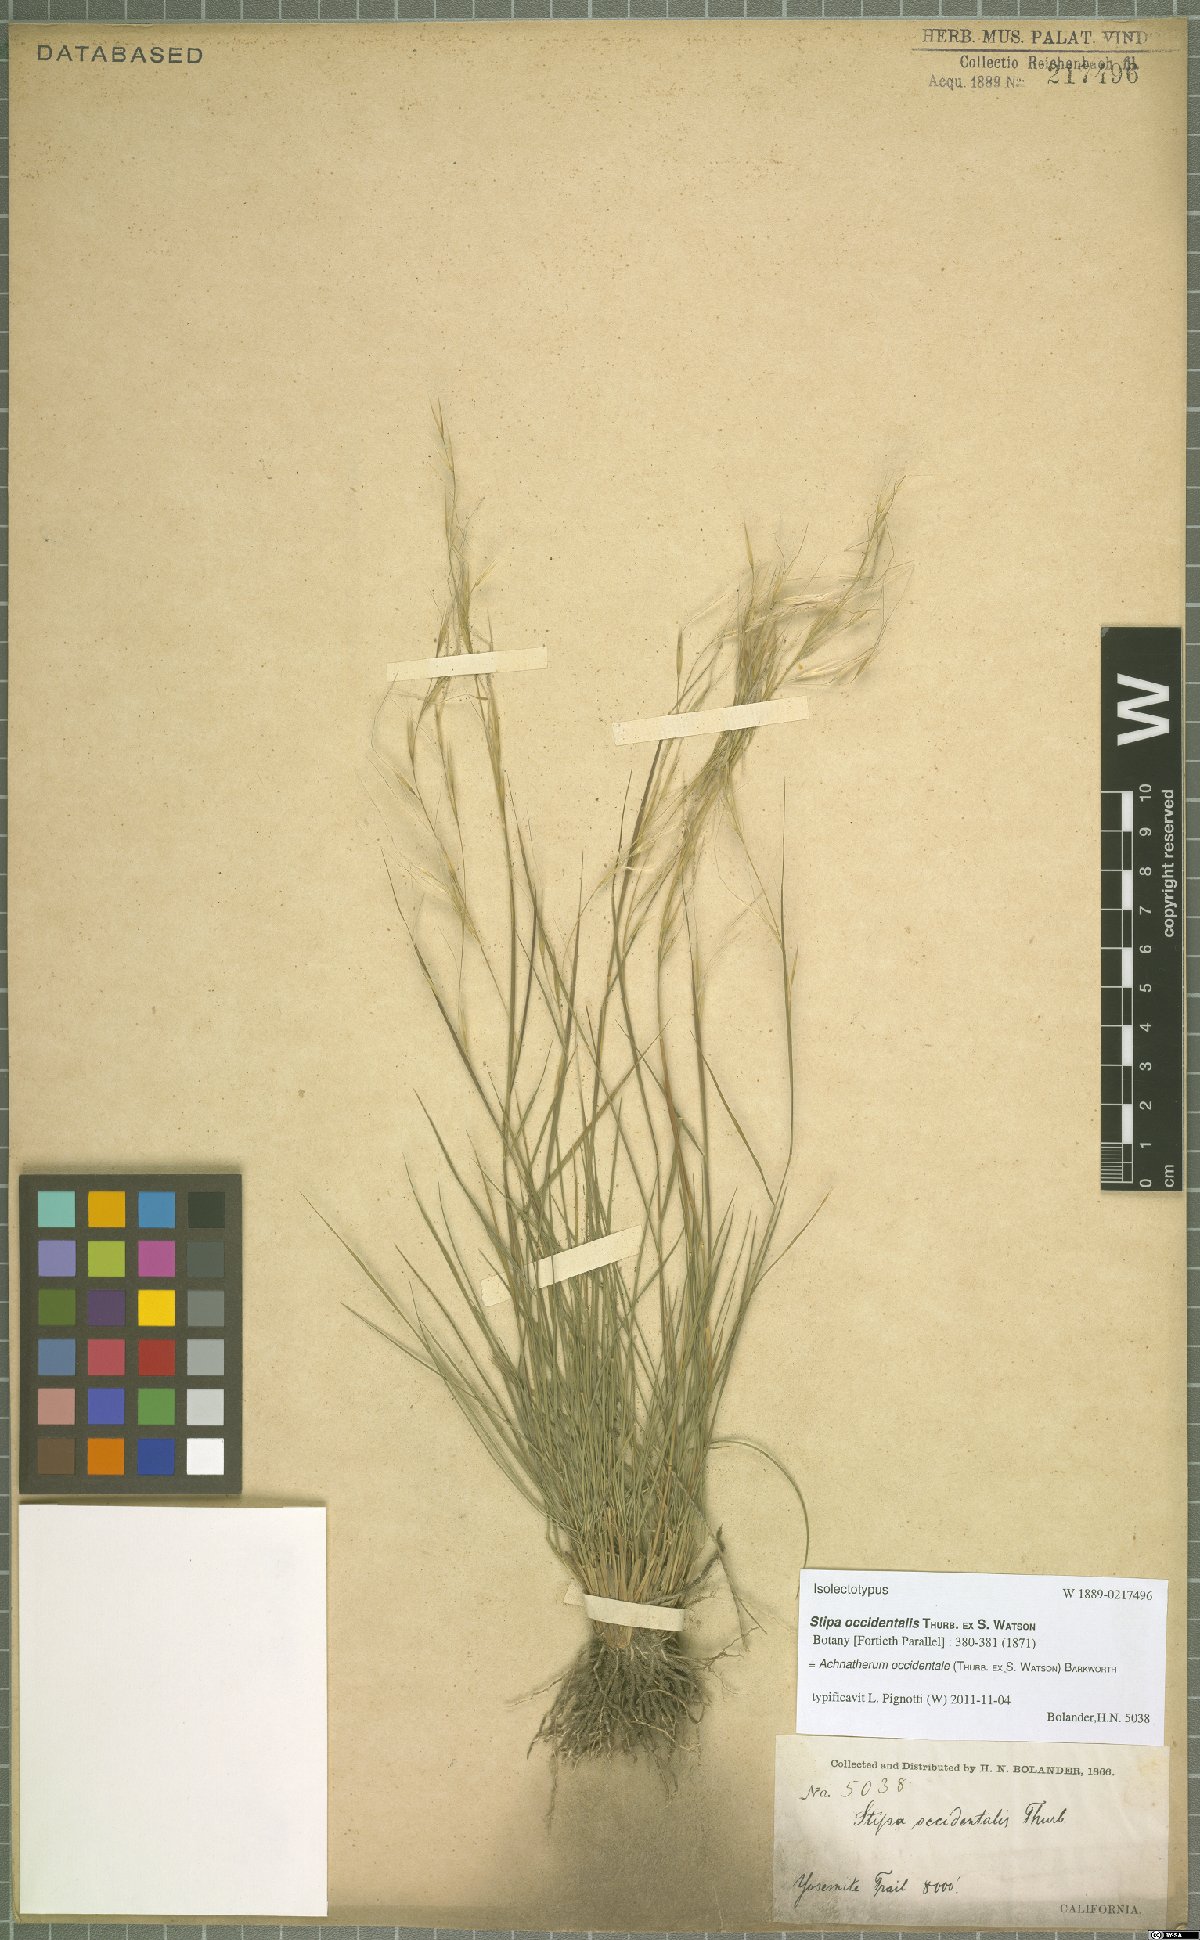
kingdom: Plantae
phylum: Tracheophyta
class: Liliopsida
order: Poales
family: Poaceae
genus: Eriocoma
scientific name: Eriocoma occidentalis
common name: Stiff needlegrass
